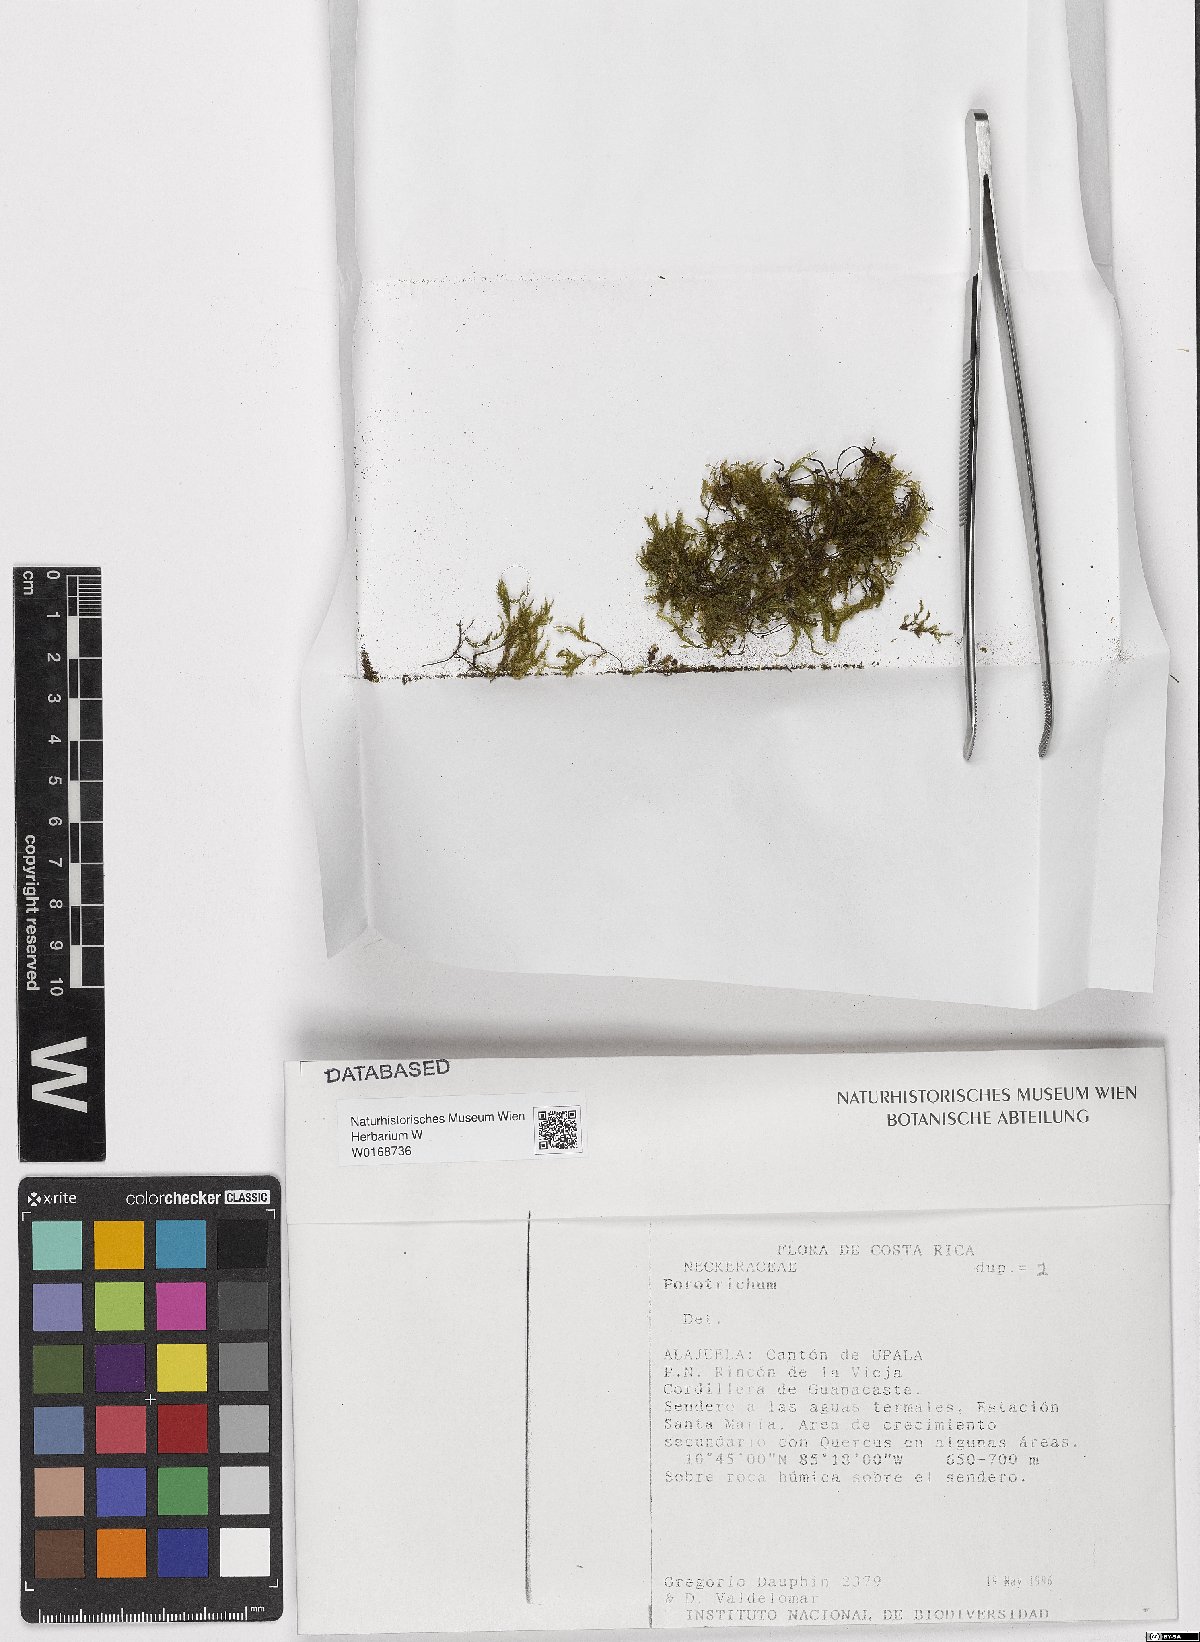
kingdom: Plantae
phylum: Bryophyta
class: Bryopsida
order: Hypnales
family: Neckeraceae
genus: Porotrichum
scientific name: Porotrichum
